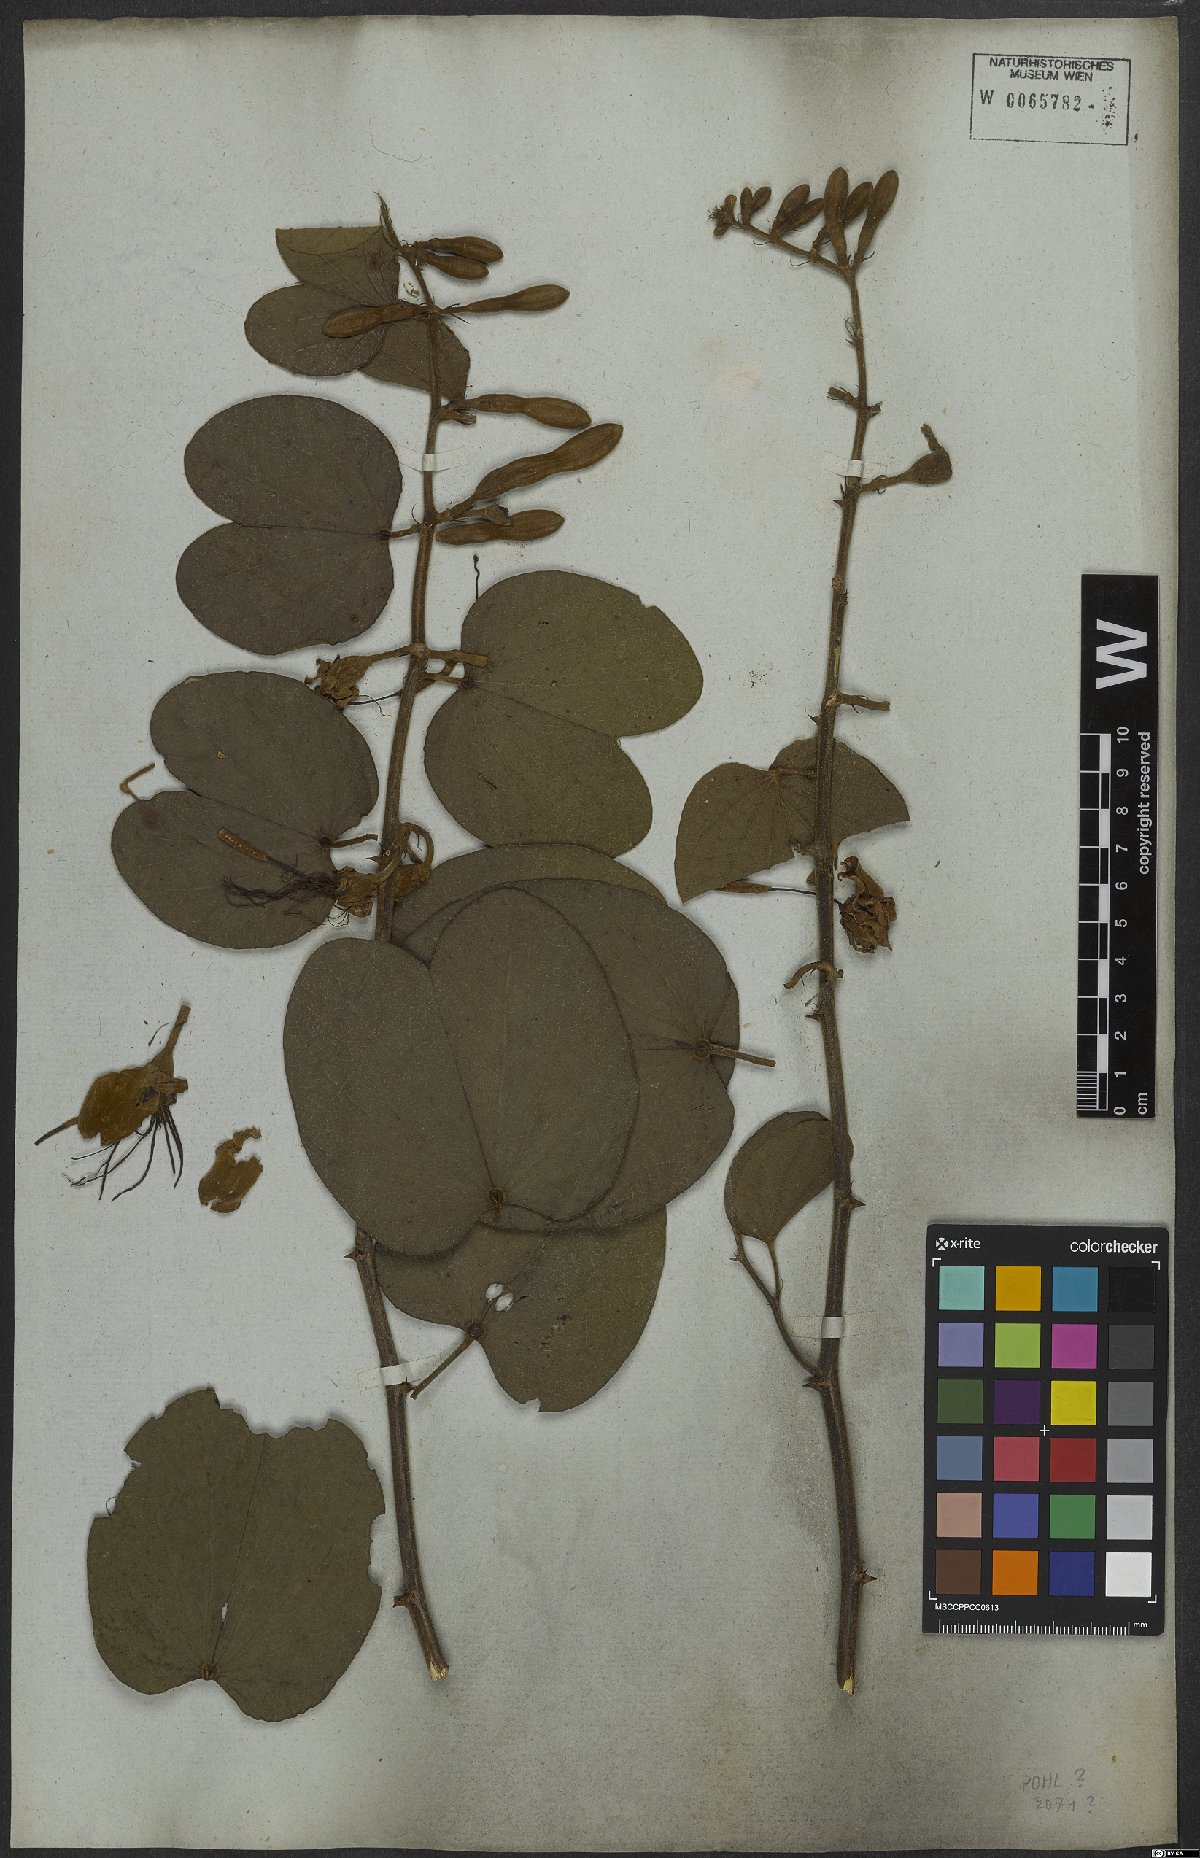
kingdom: Plantae
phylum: Tracheophyta
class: Magnoliopsida
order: Fabales
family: Fabaceae
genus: Bauhinia
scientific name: Bauhinia aculeata
